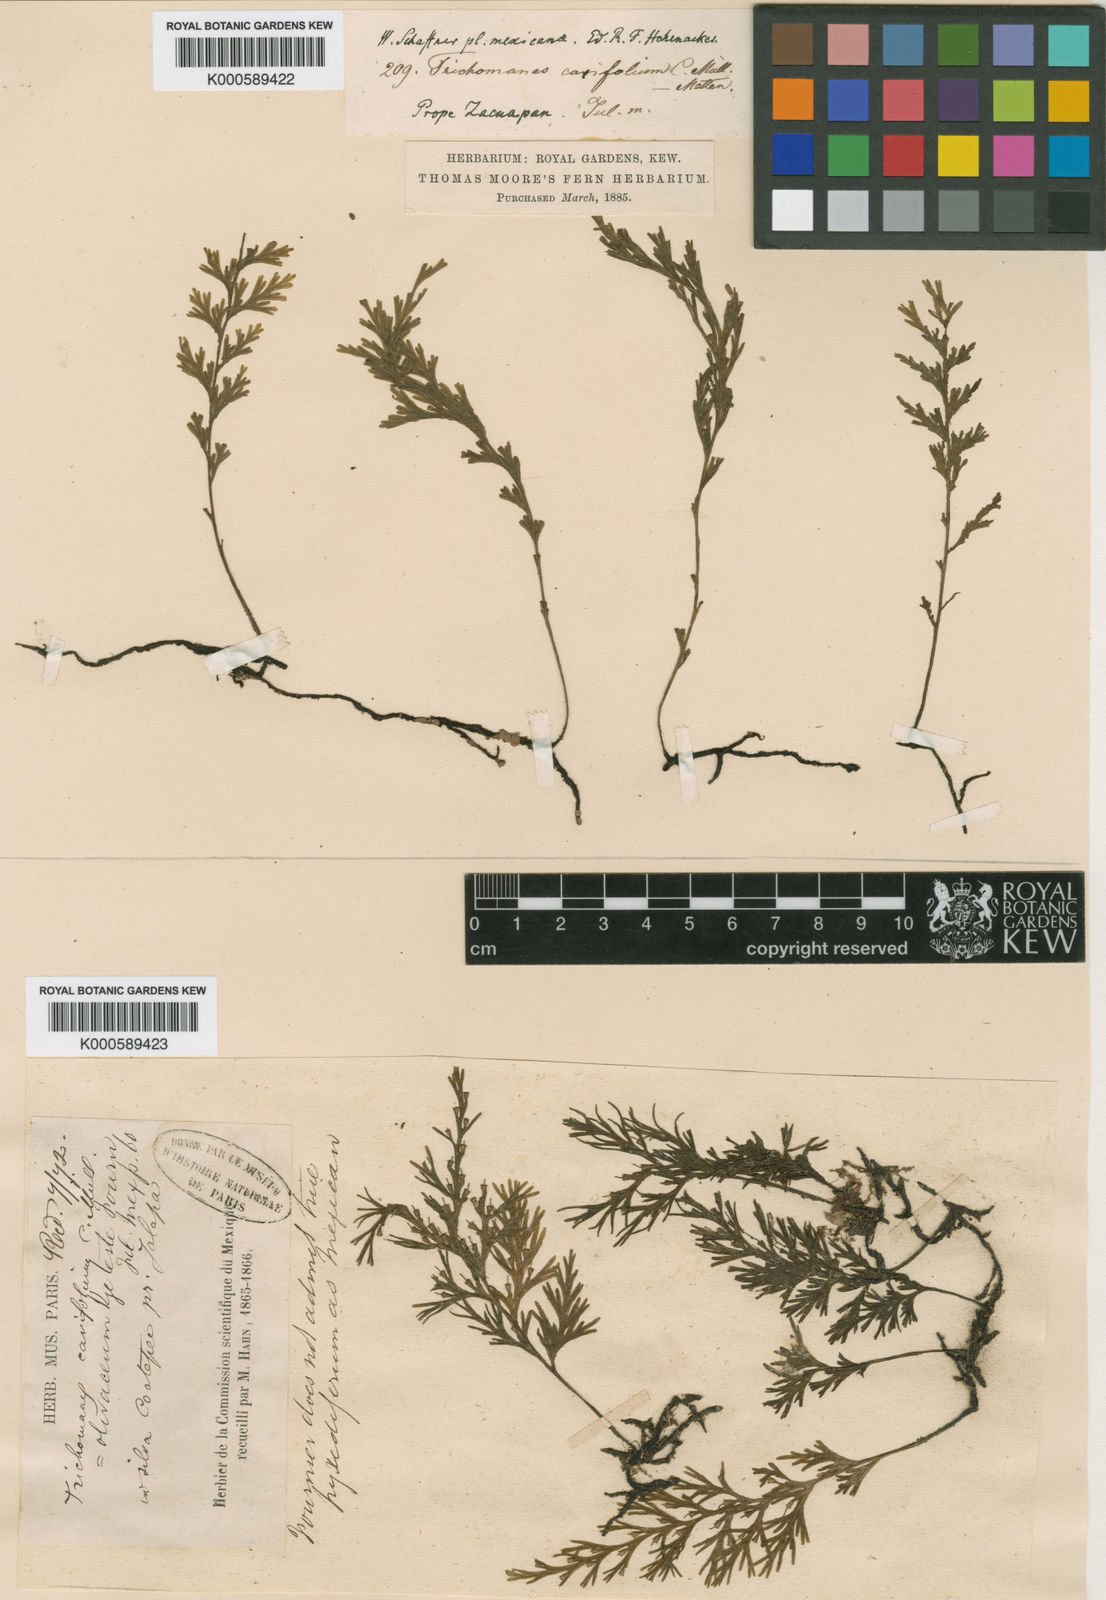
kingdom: Plantae
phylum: Tracheophyta
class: Polypodiopsida
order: Hymenophyllales
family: Hymenophyllaceae
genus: Polyphlebium
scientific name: Polyphlebium pyxidiferum
